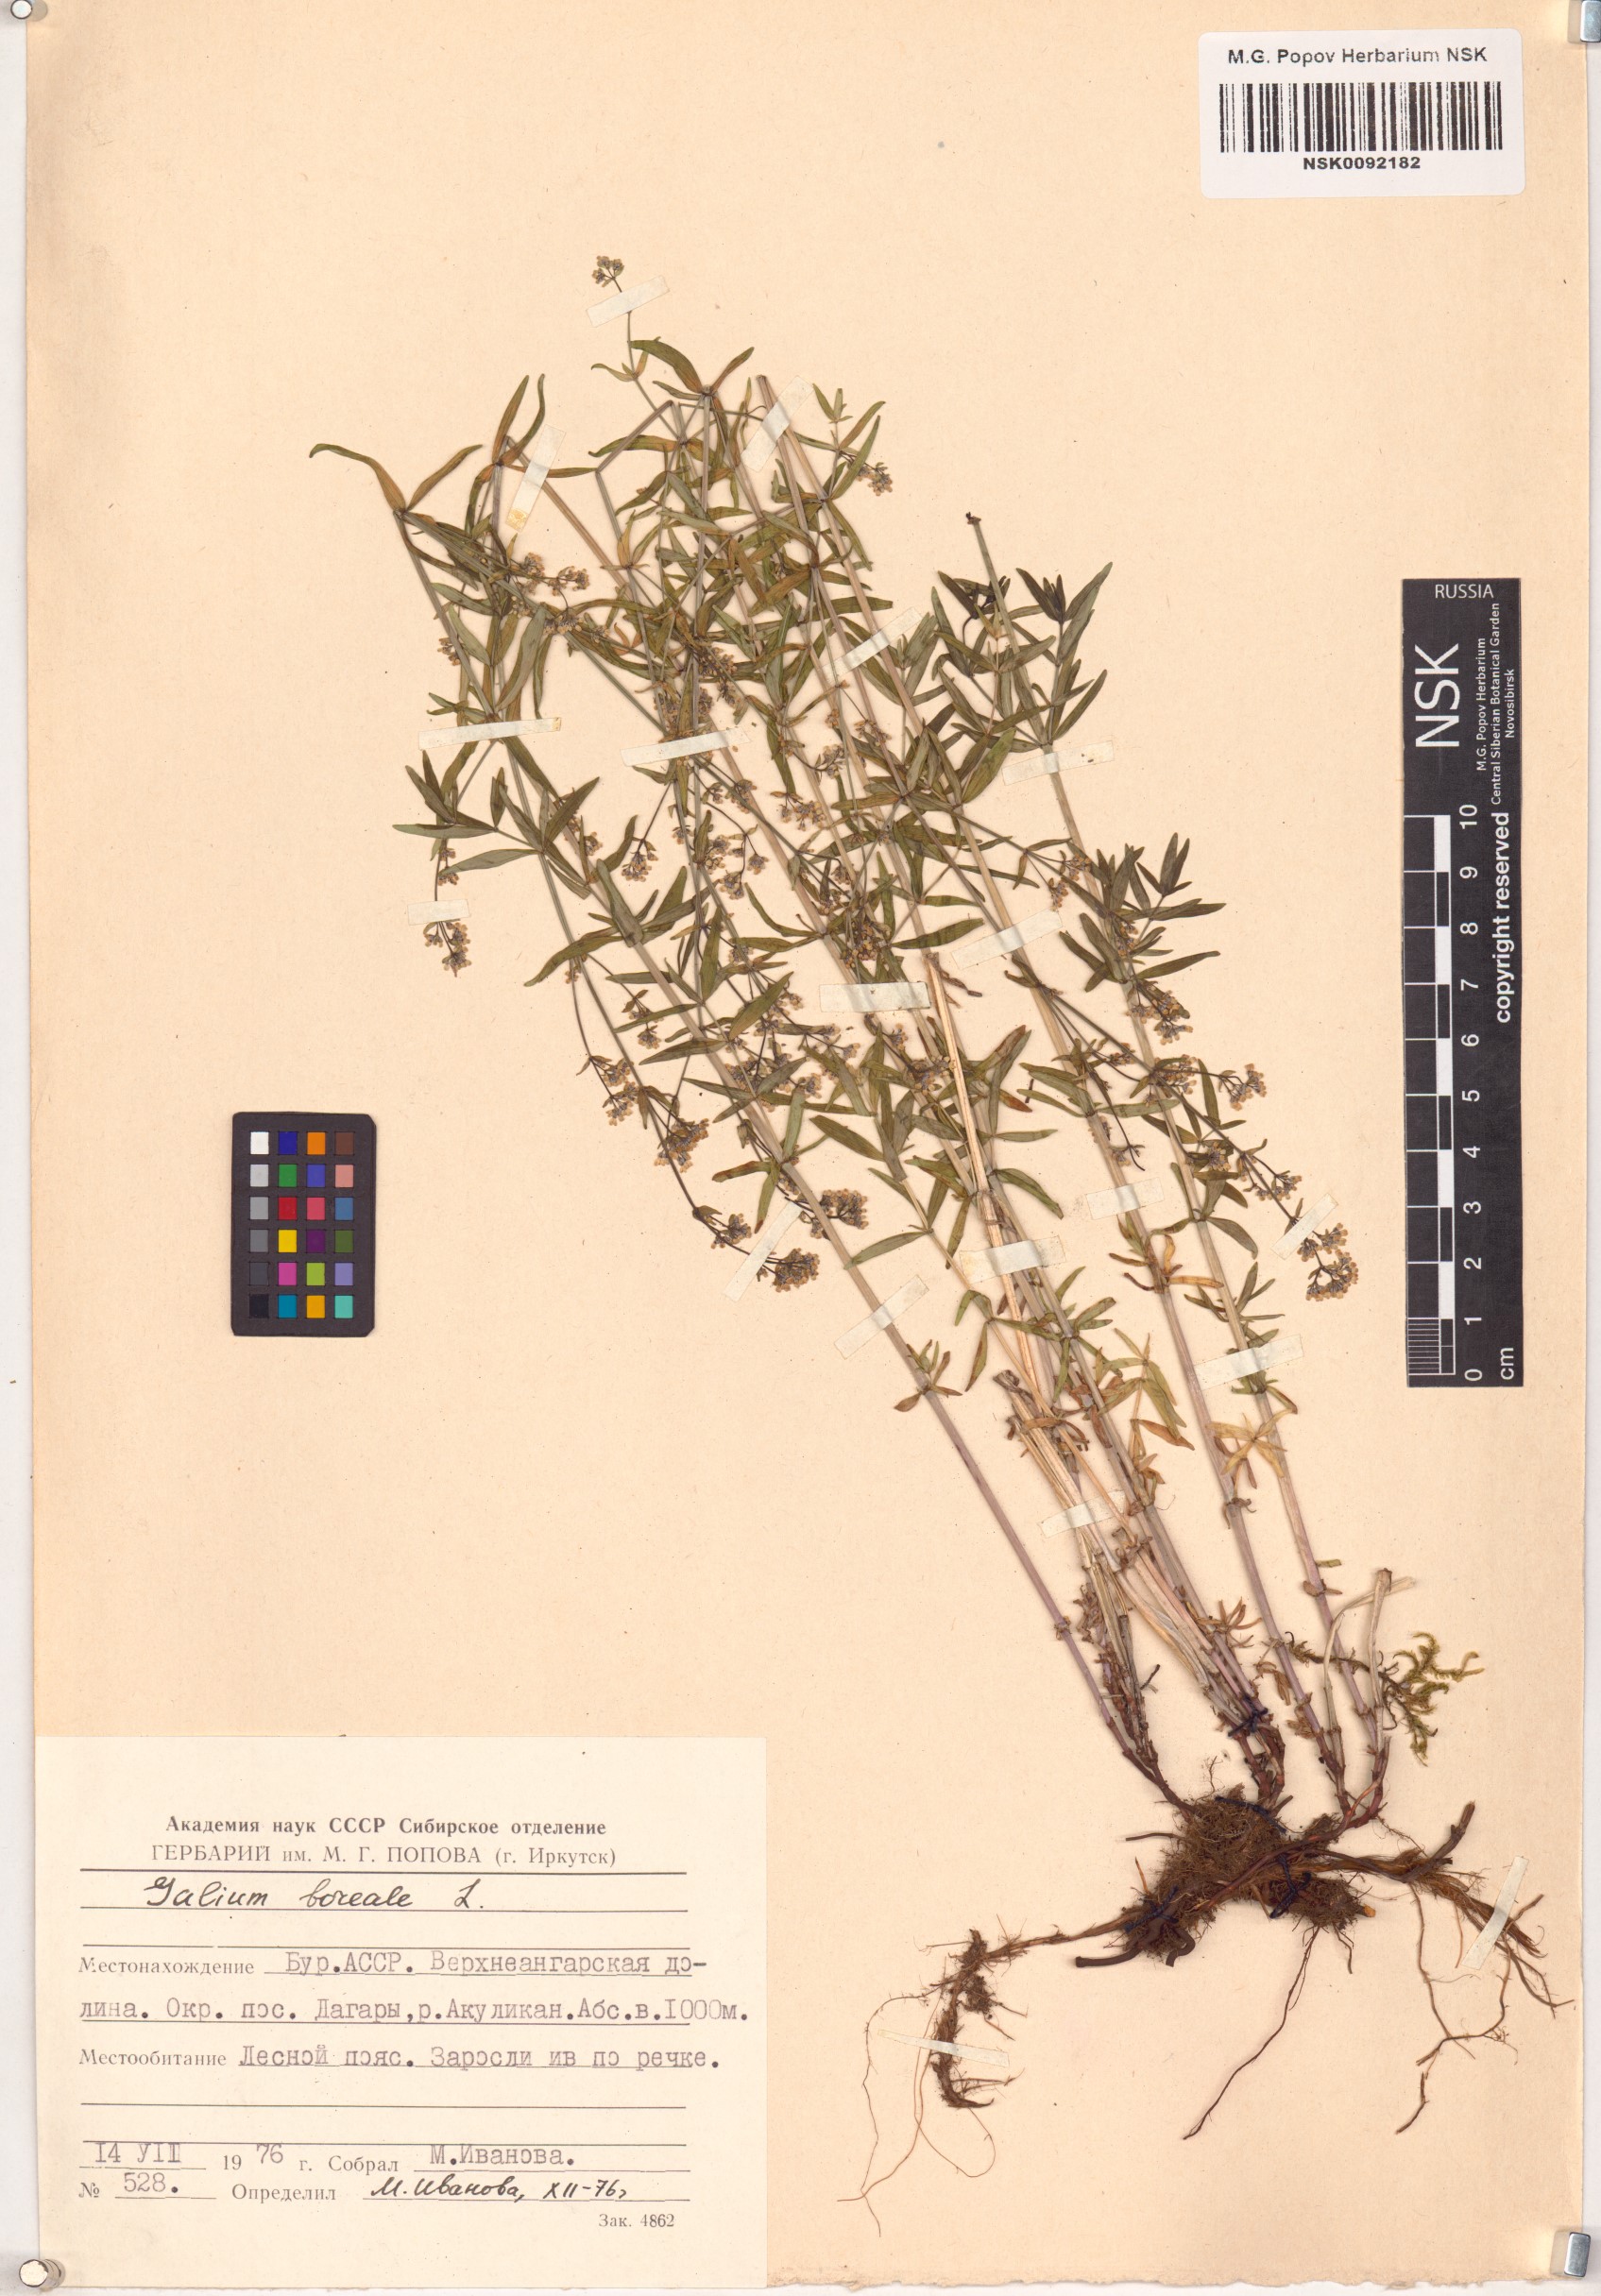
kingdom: Plantae
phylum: Tracheophyta
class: Magnoliopsida
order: Gentianales
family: Rubiaceae
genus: Galium
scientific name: Galium boreale
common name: Northern bedstraw
